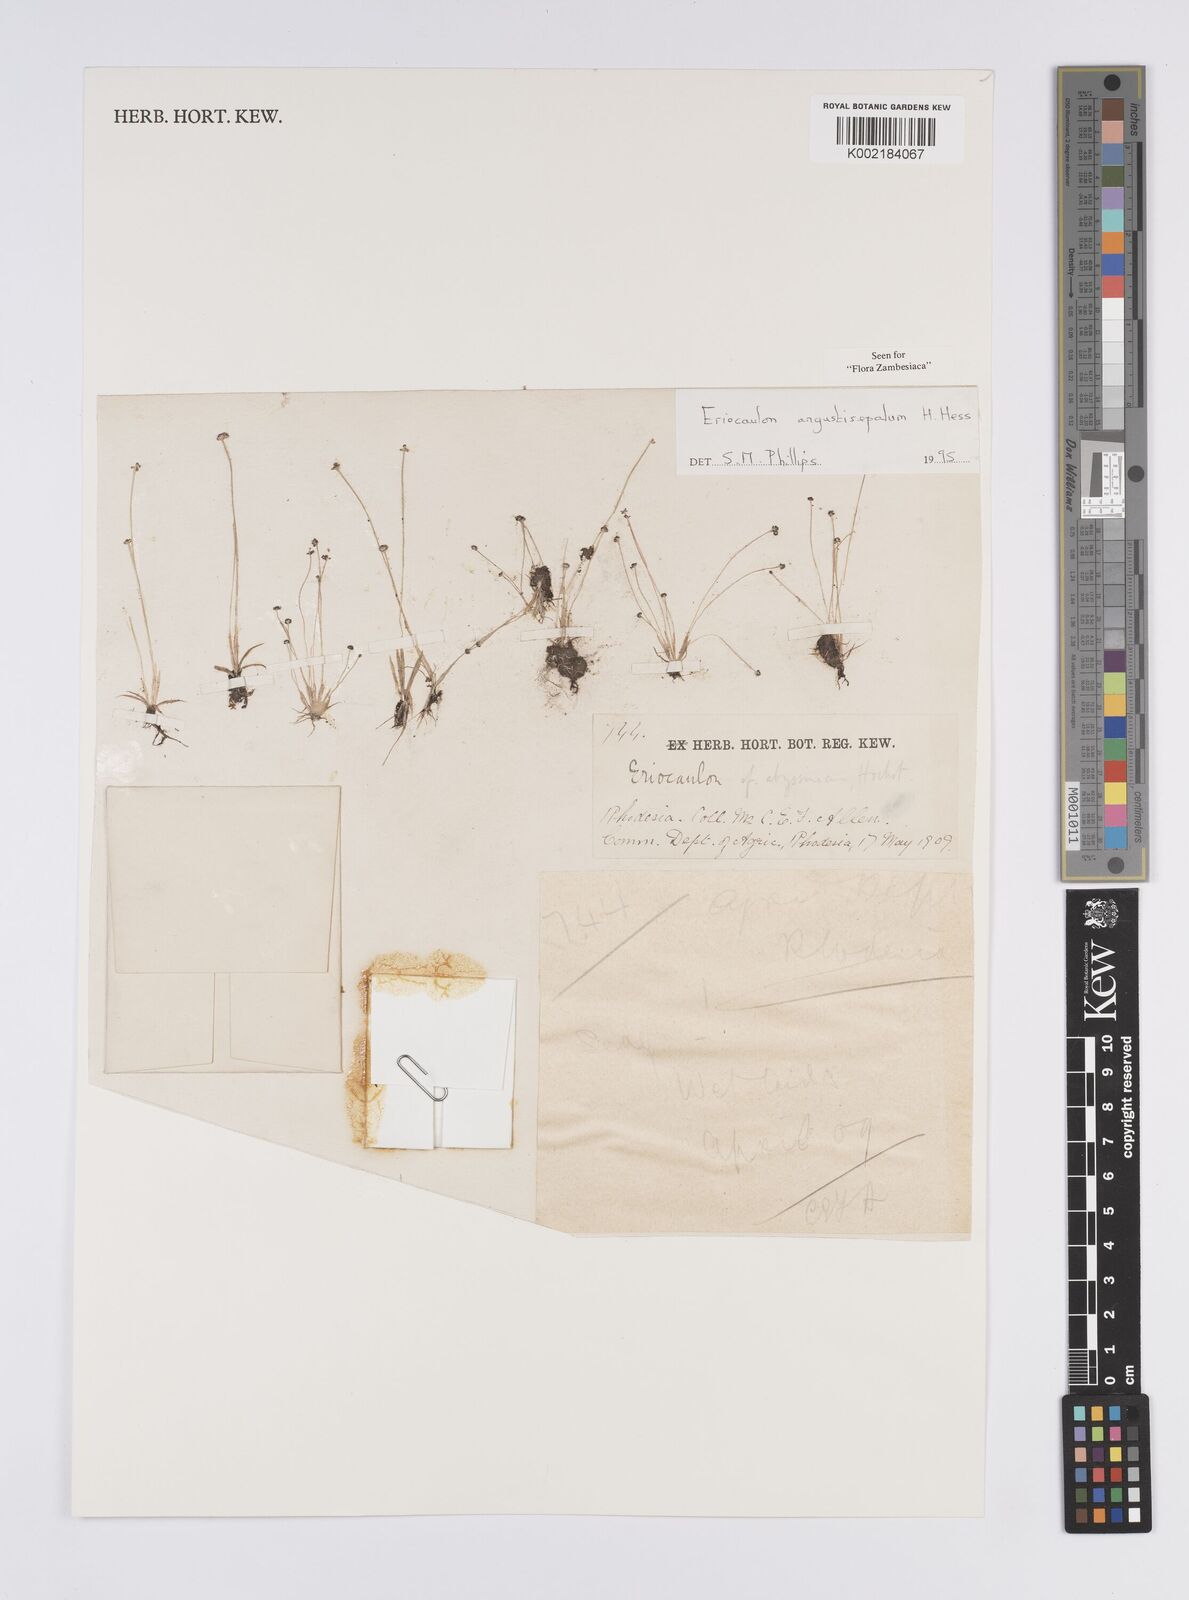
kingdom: Plantae
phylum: Tracheophyta
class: Liliopsida
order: Poales
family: Eriocaulaceae
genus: Eriocaulon
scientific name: Eriocaulon mutatum
